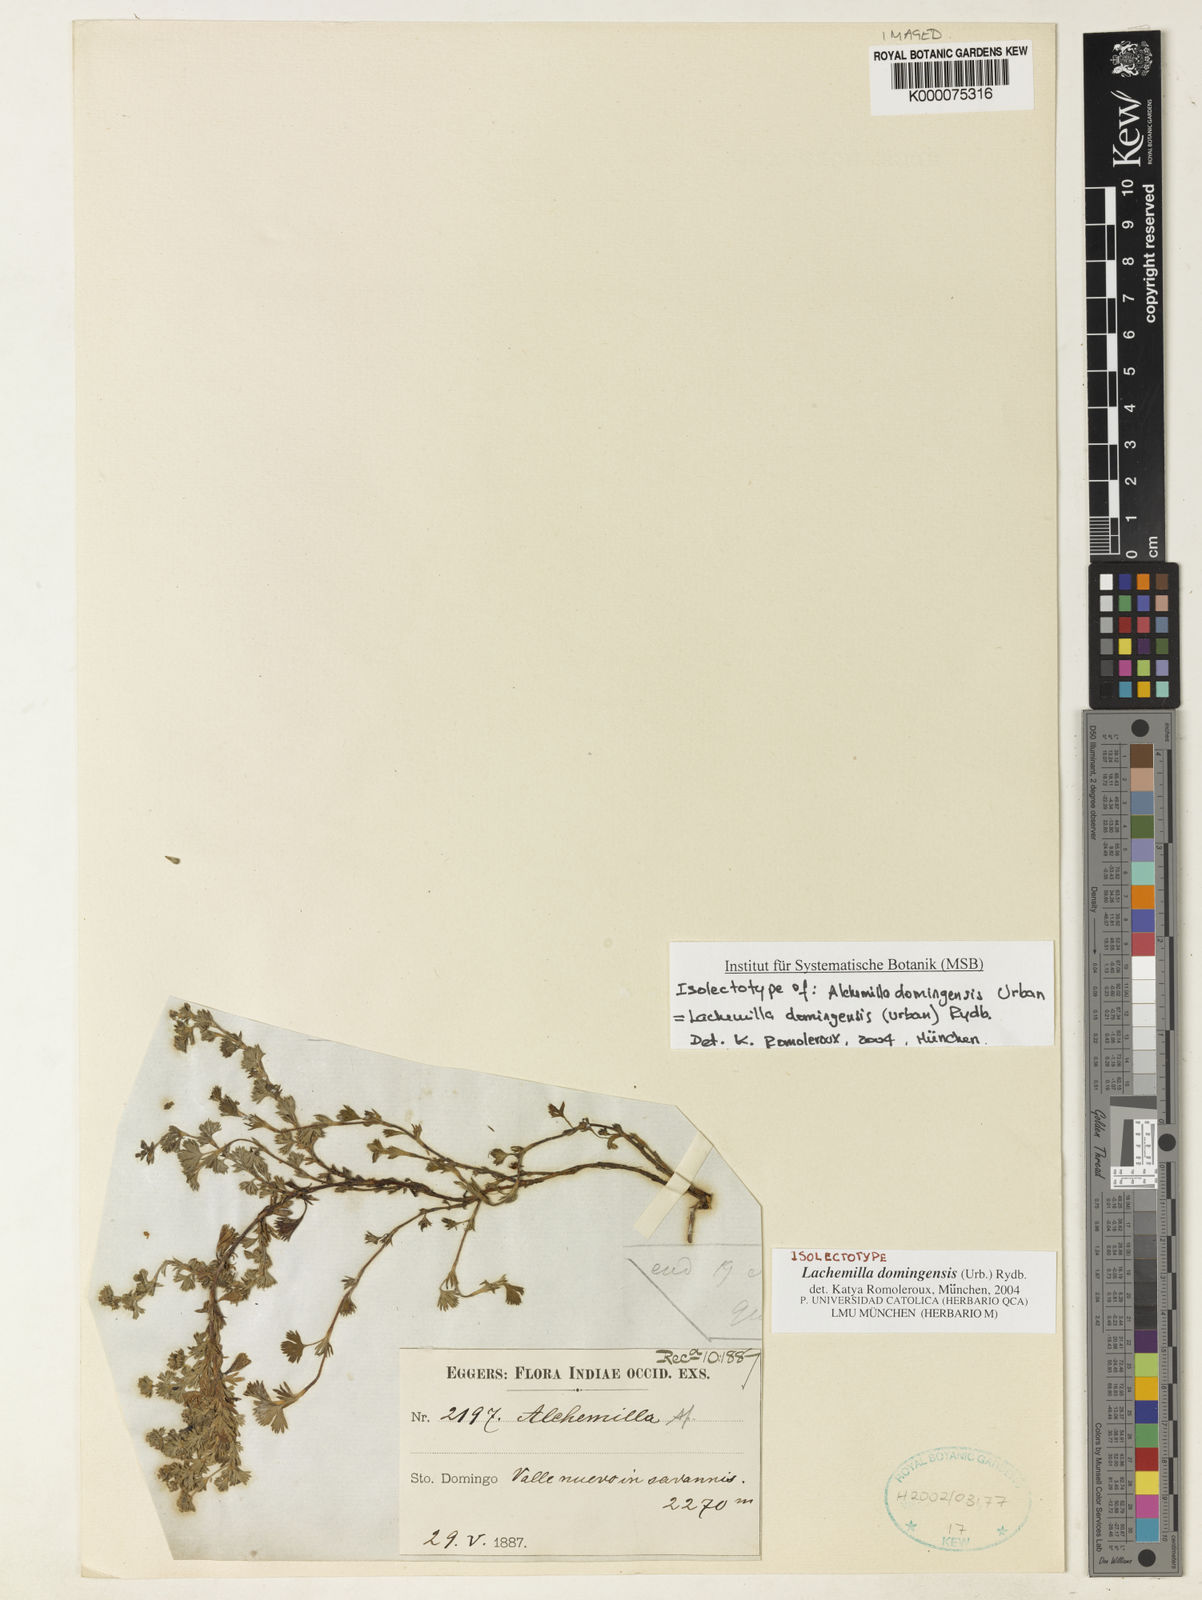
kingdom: Plantae
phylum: Tracheophyta
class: Magnoliopsida
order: Rosales
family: Rosaceae
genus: Lachemilla
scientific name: Lachemilla domingensis
